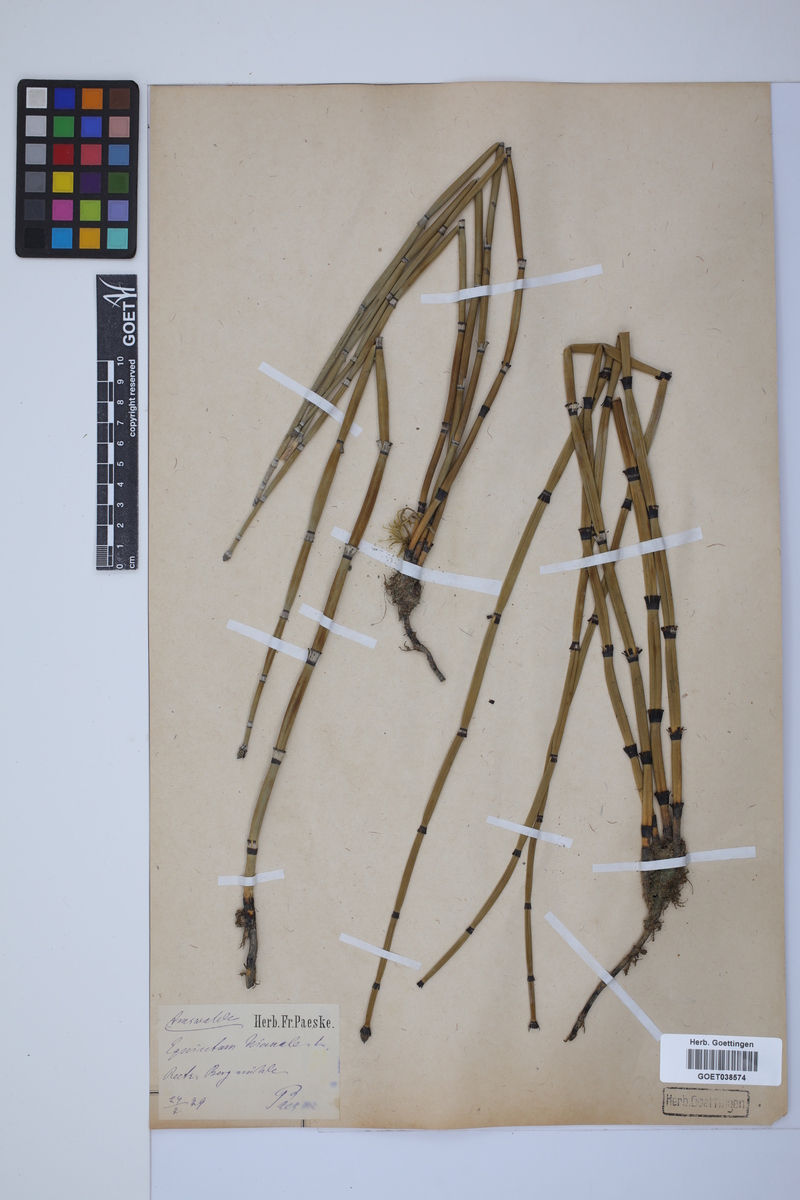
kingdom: Plantae
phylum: Tracheophyta
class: Polypodiopsida
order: Equisetales
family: Equisetaceae
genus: Equisetum
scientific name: Equisetum hyemale
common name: Rough horsetail
